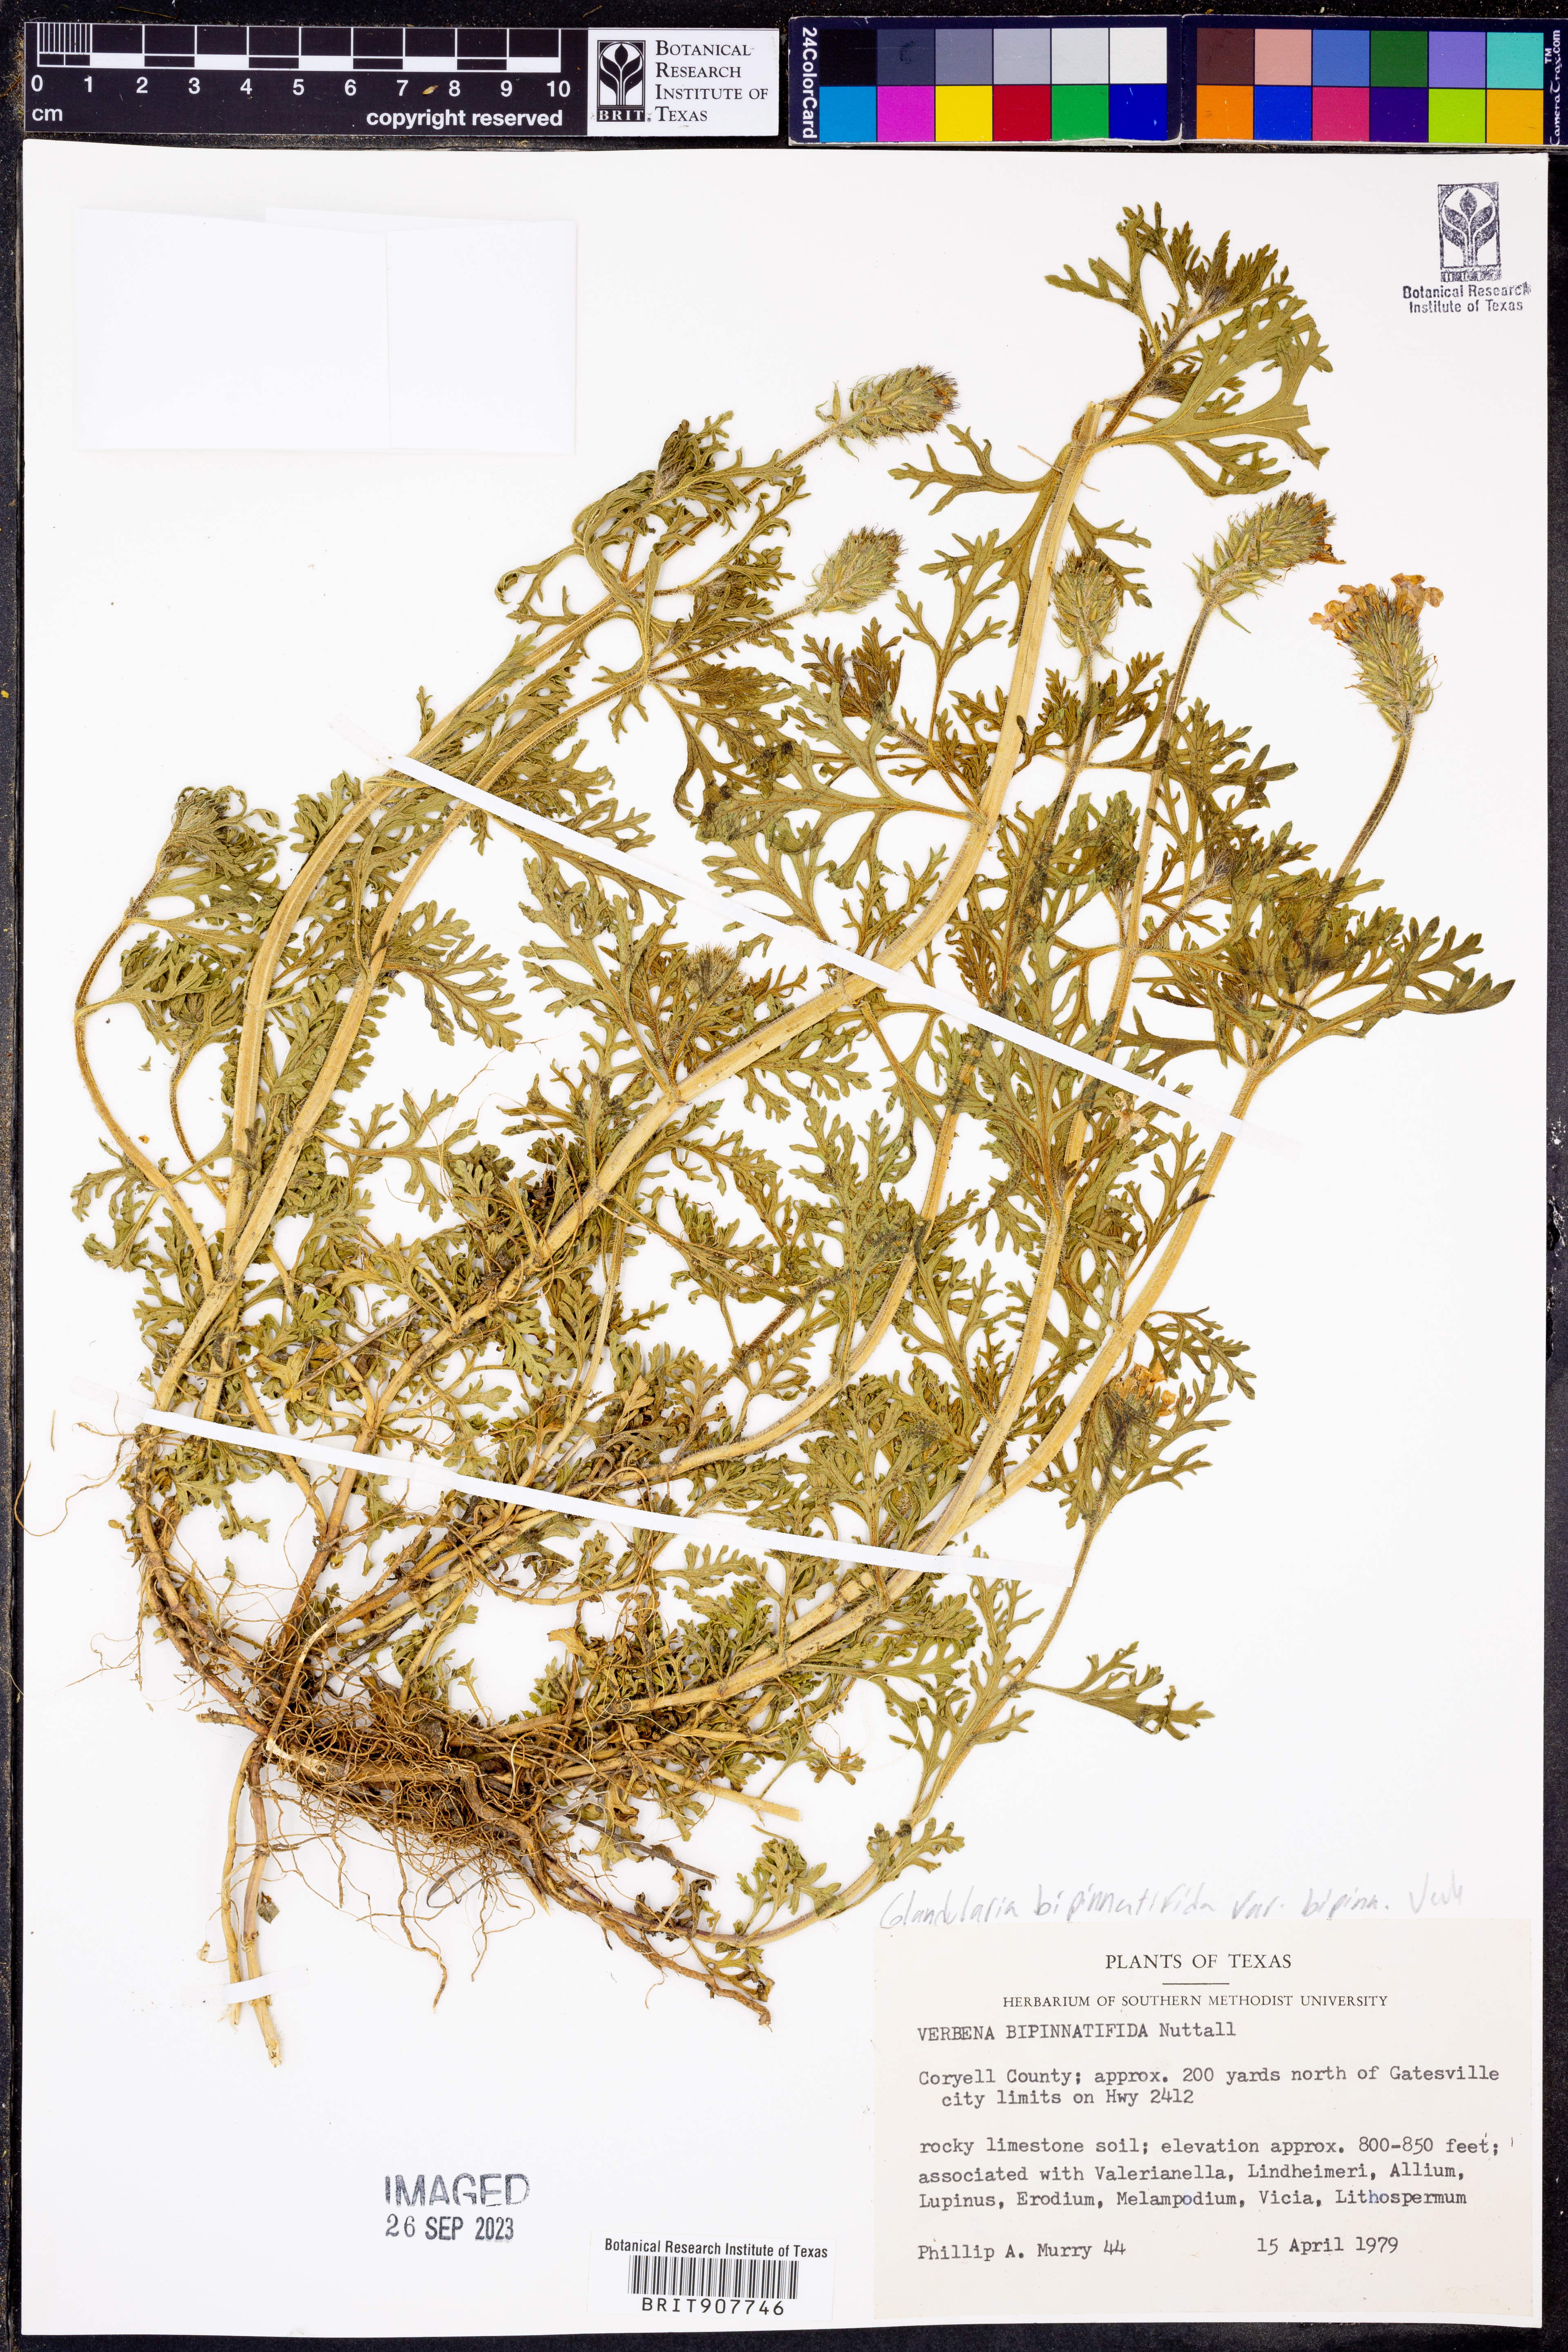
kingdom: Plantae
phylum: Tracheophyta
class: Magnoliopsida
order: Lamiales
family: Verbenaceae
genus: Verbena
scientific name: Verbena bipinnatifida
